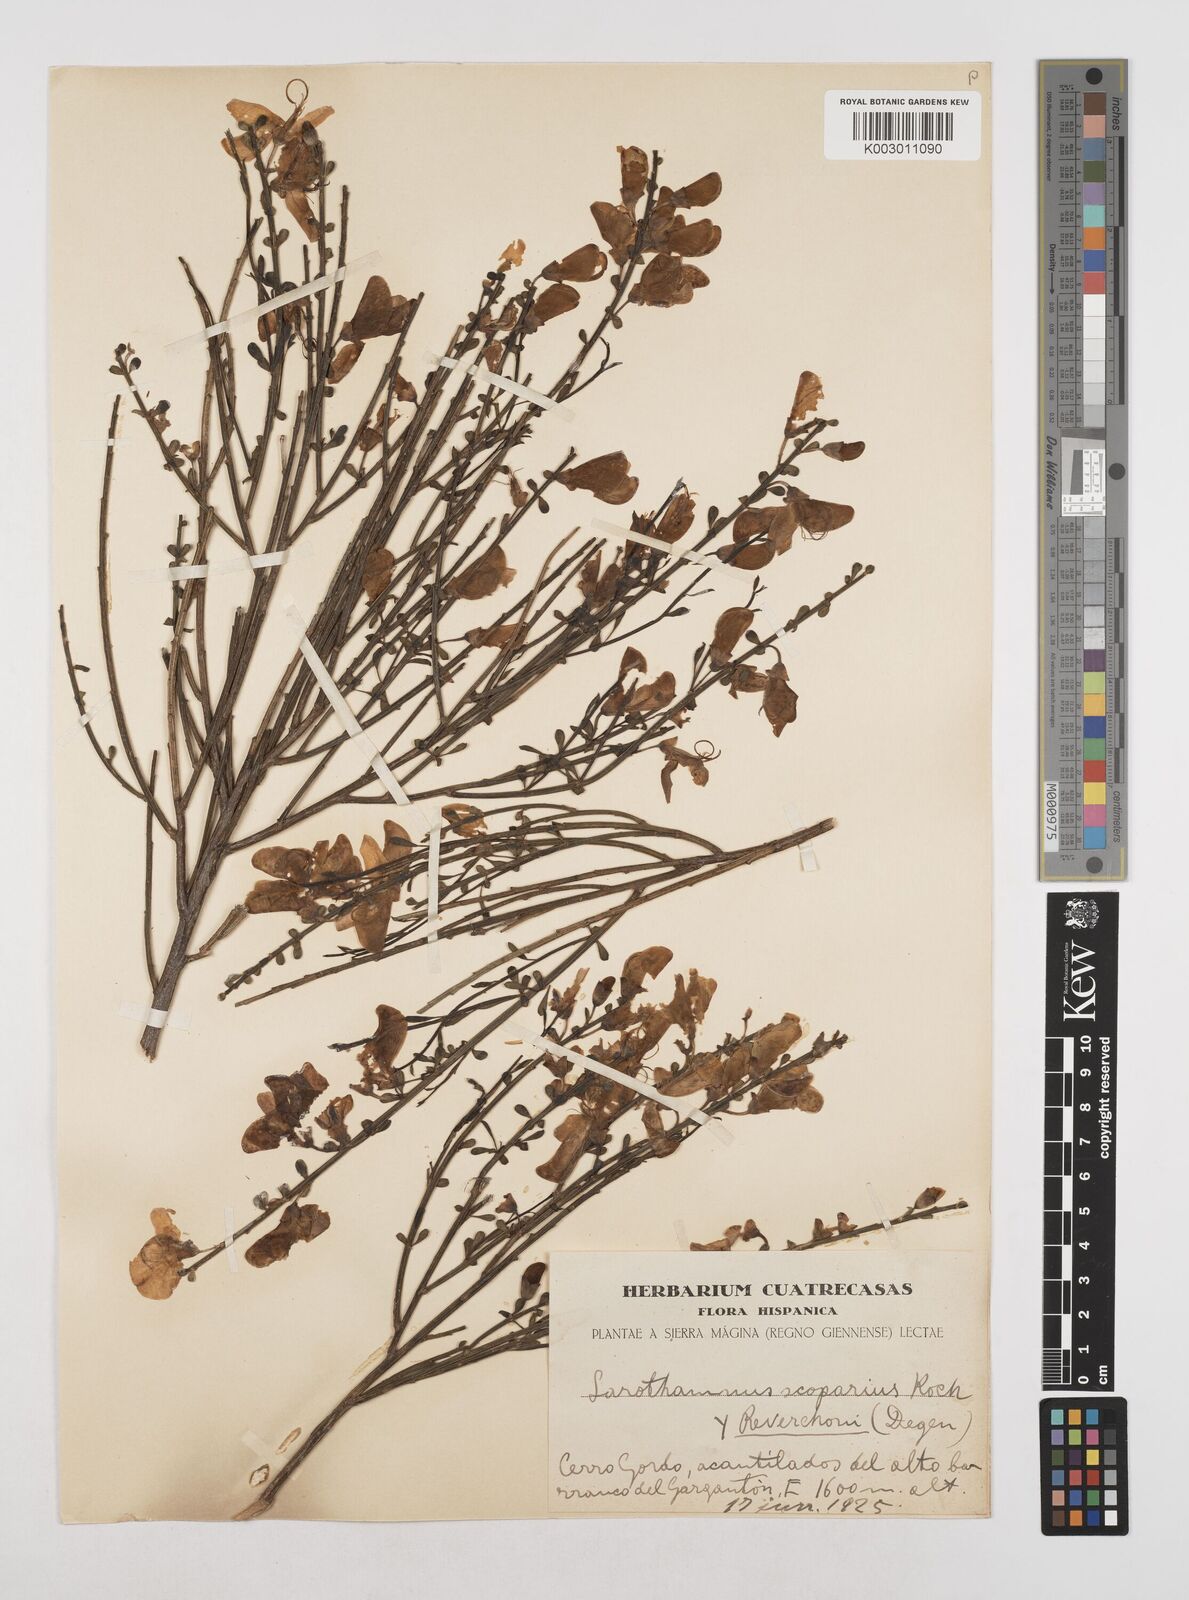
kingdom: Plantae
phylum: Tracheophyta
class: Magnoliopsida
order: Fabales
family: Fabaceae
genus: Cytisus
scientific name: Cytisus scoparius
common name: Scotch broom
